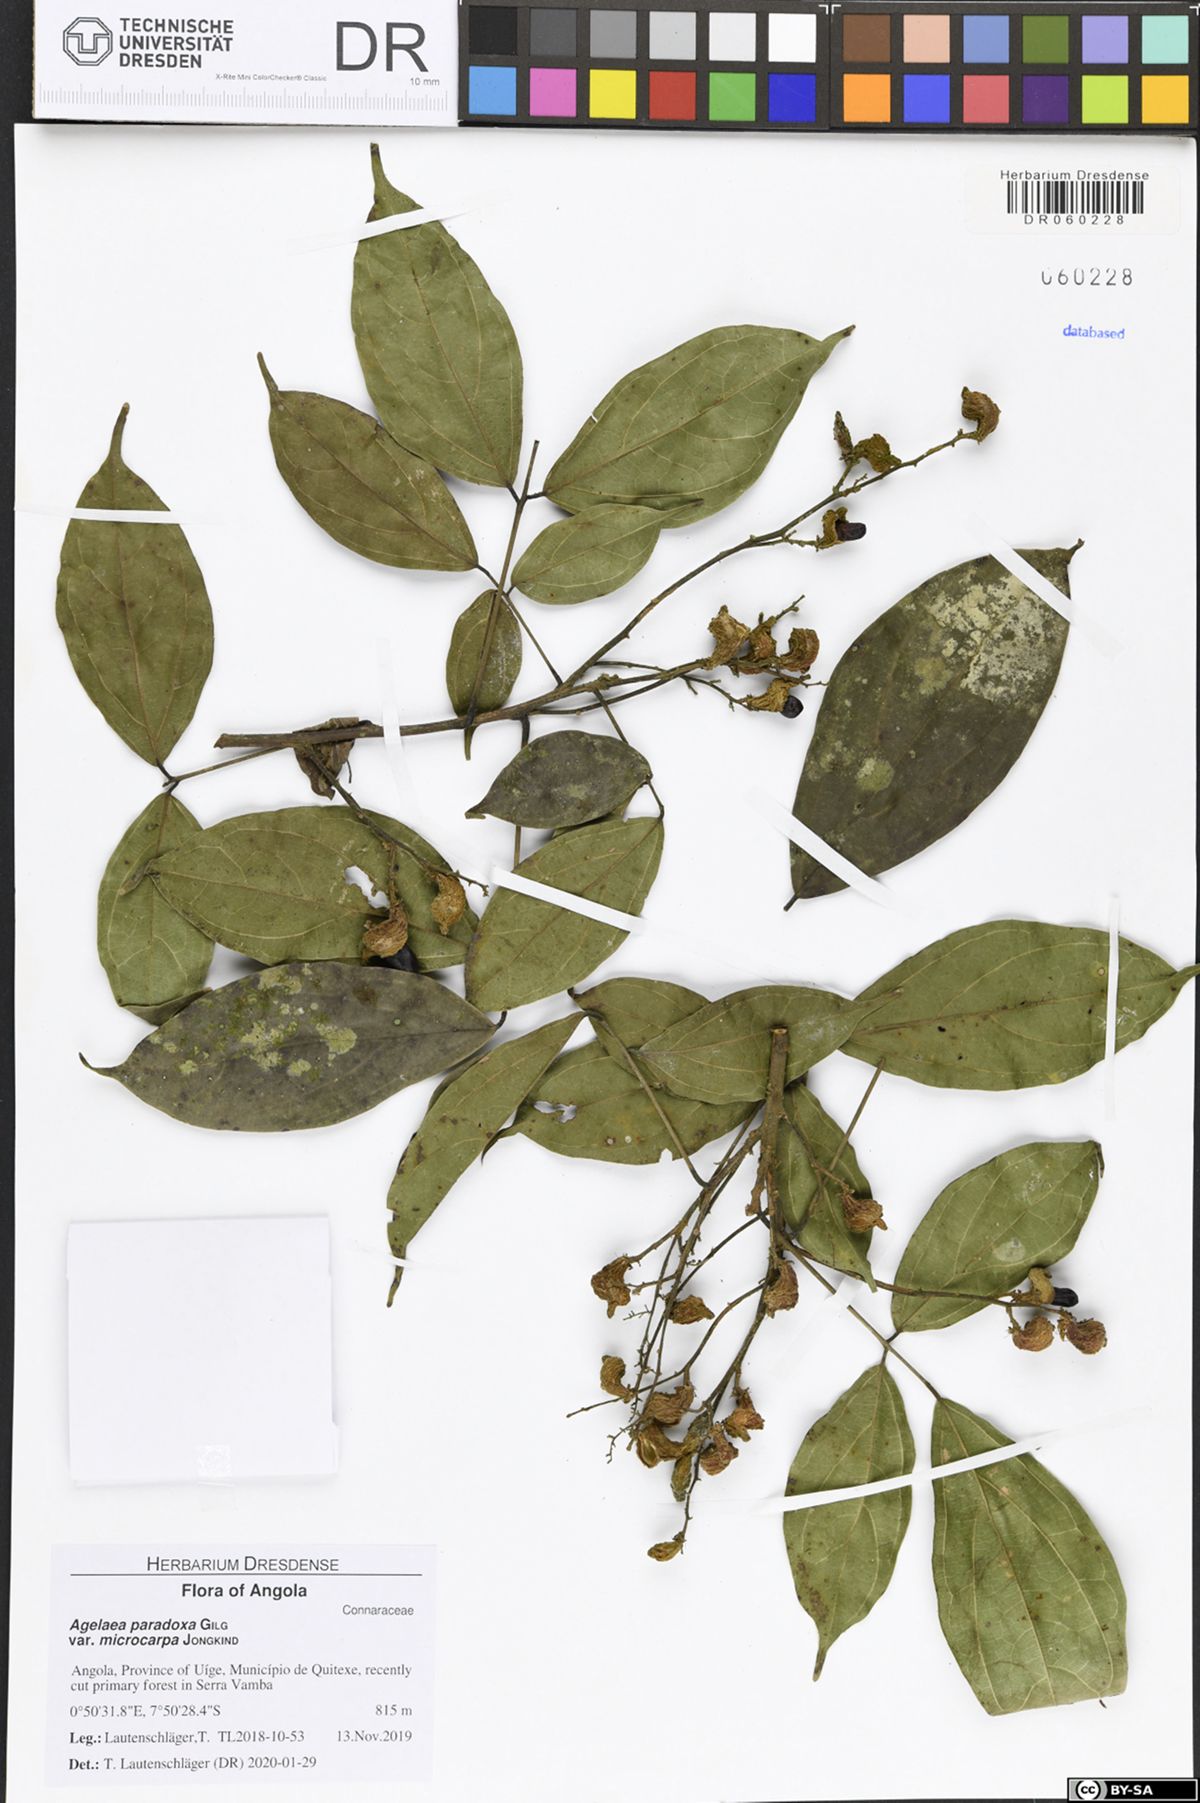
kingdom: Plantae
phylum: Tracheophyta
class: Magnoliopsida
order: Oxalidales
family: Connaraceae
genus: Castanola
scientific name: Castanola paradoxa
